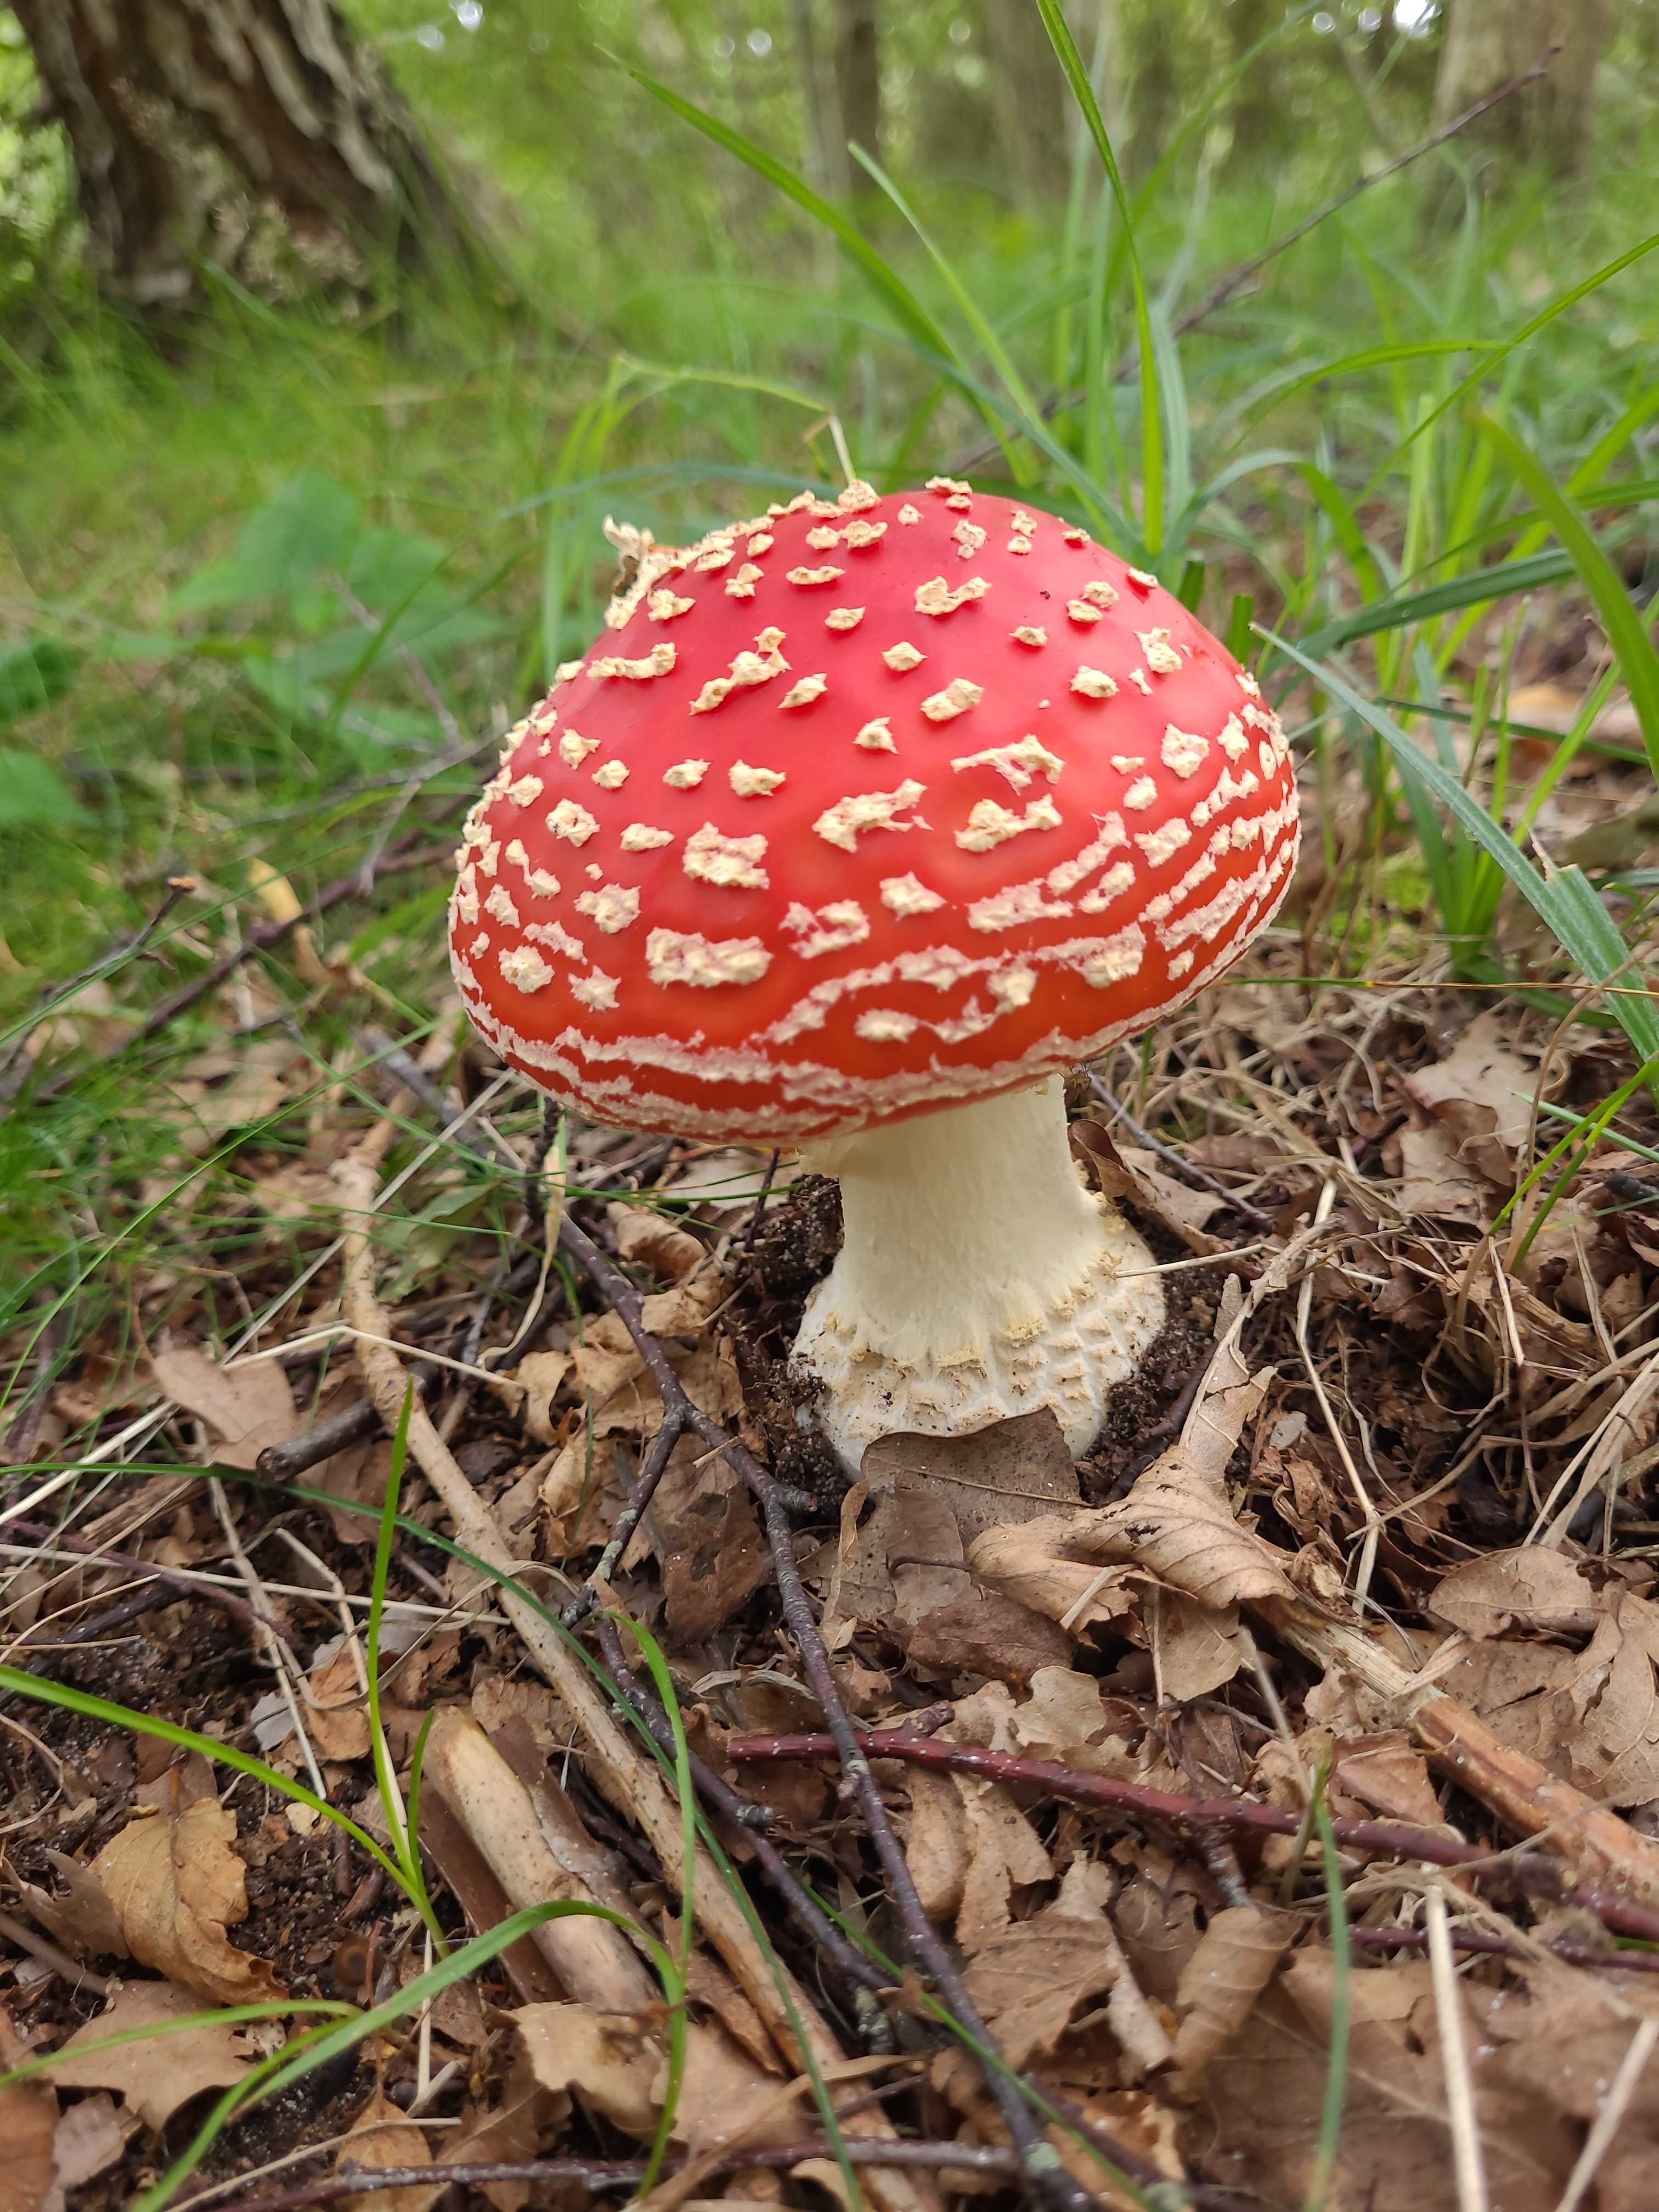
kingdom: Fungi
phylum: Basidiomycota
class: Agaricomycetes
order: Agaricales
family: Amanitaceae
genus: Amanita
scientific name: Amanita muscaria
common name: rød fluesvamp
